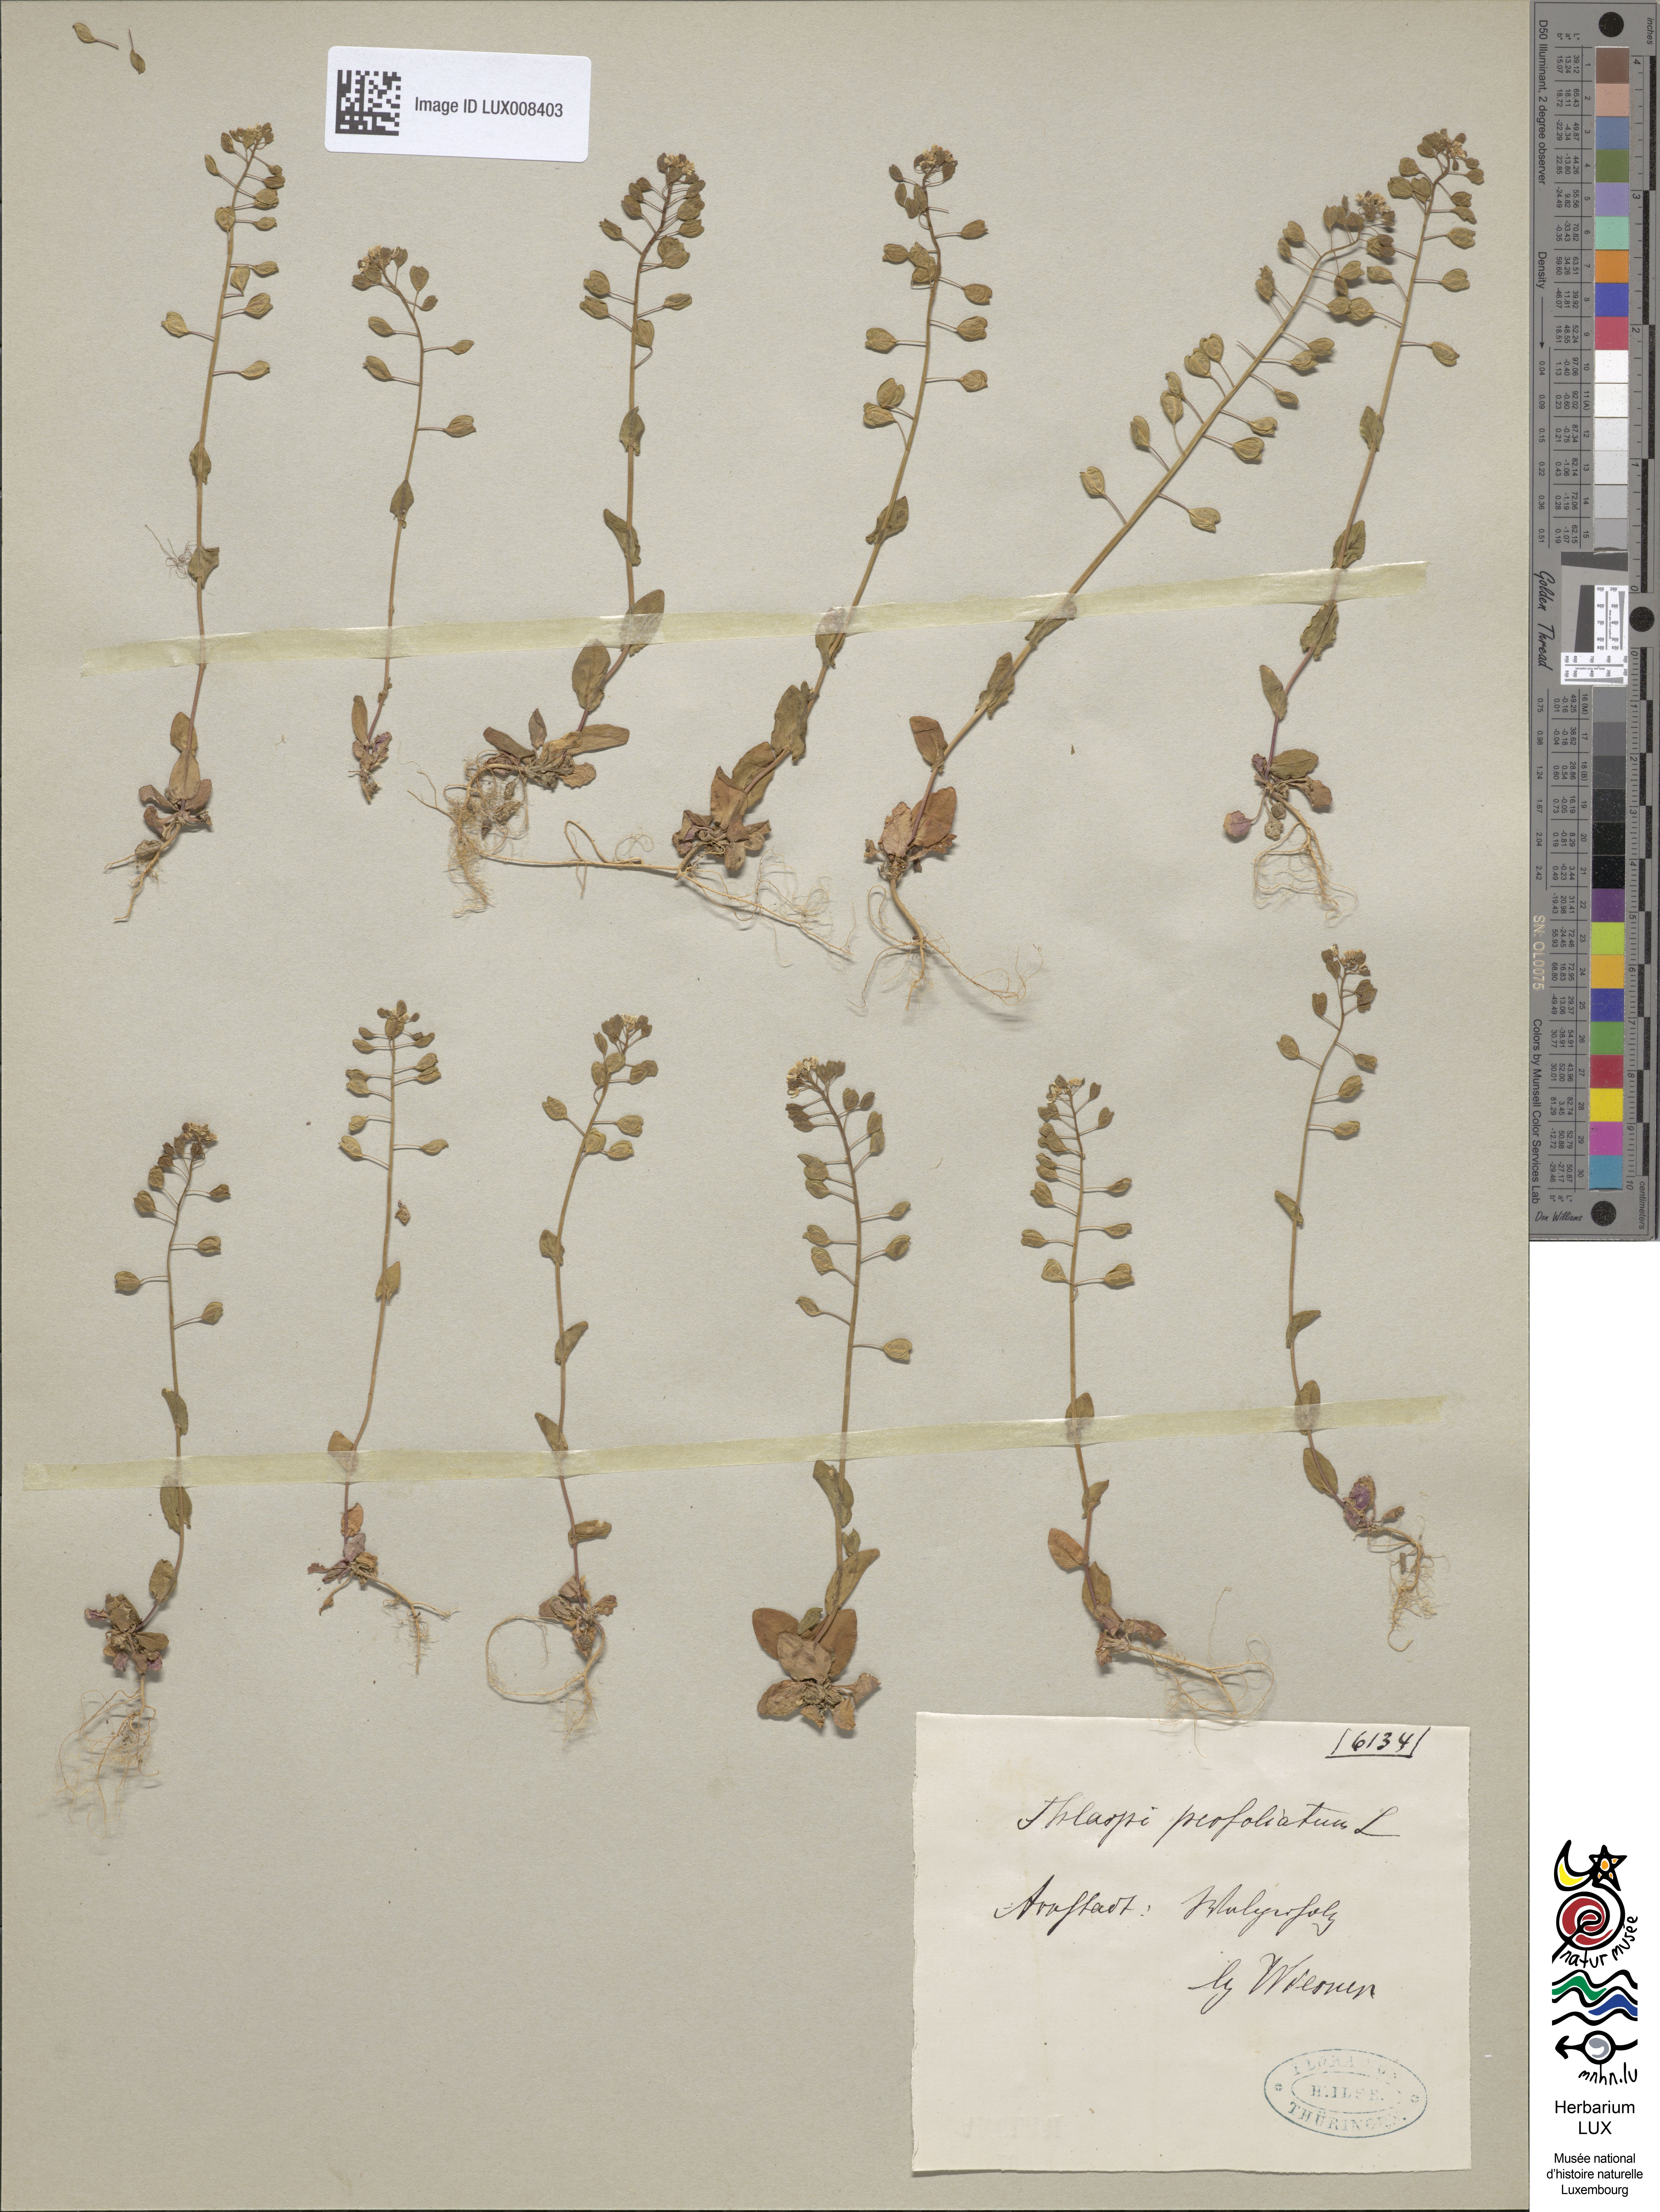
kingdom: Plantae
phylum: Tracheophyta
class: Magnoliopsida
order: Brassicales
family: Brassicaceae
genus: Noccaea
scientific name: Noccaea perfoliata
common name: Perfoliate pennycress
